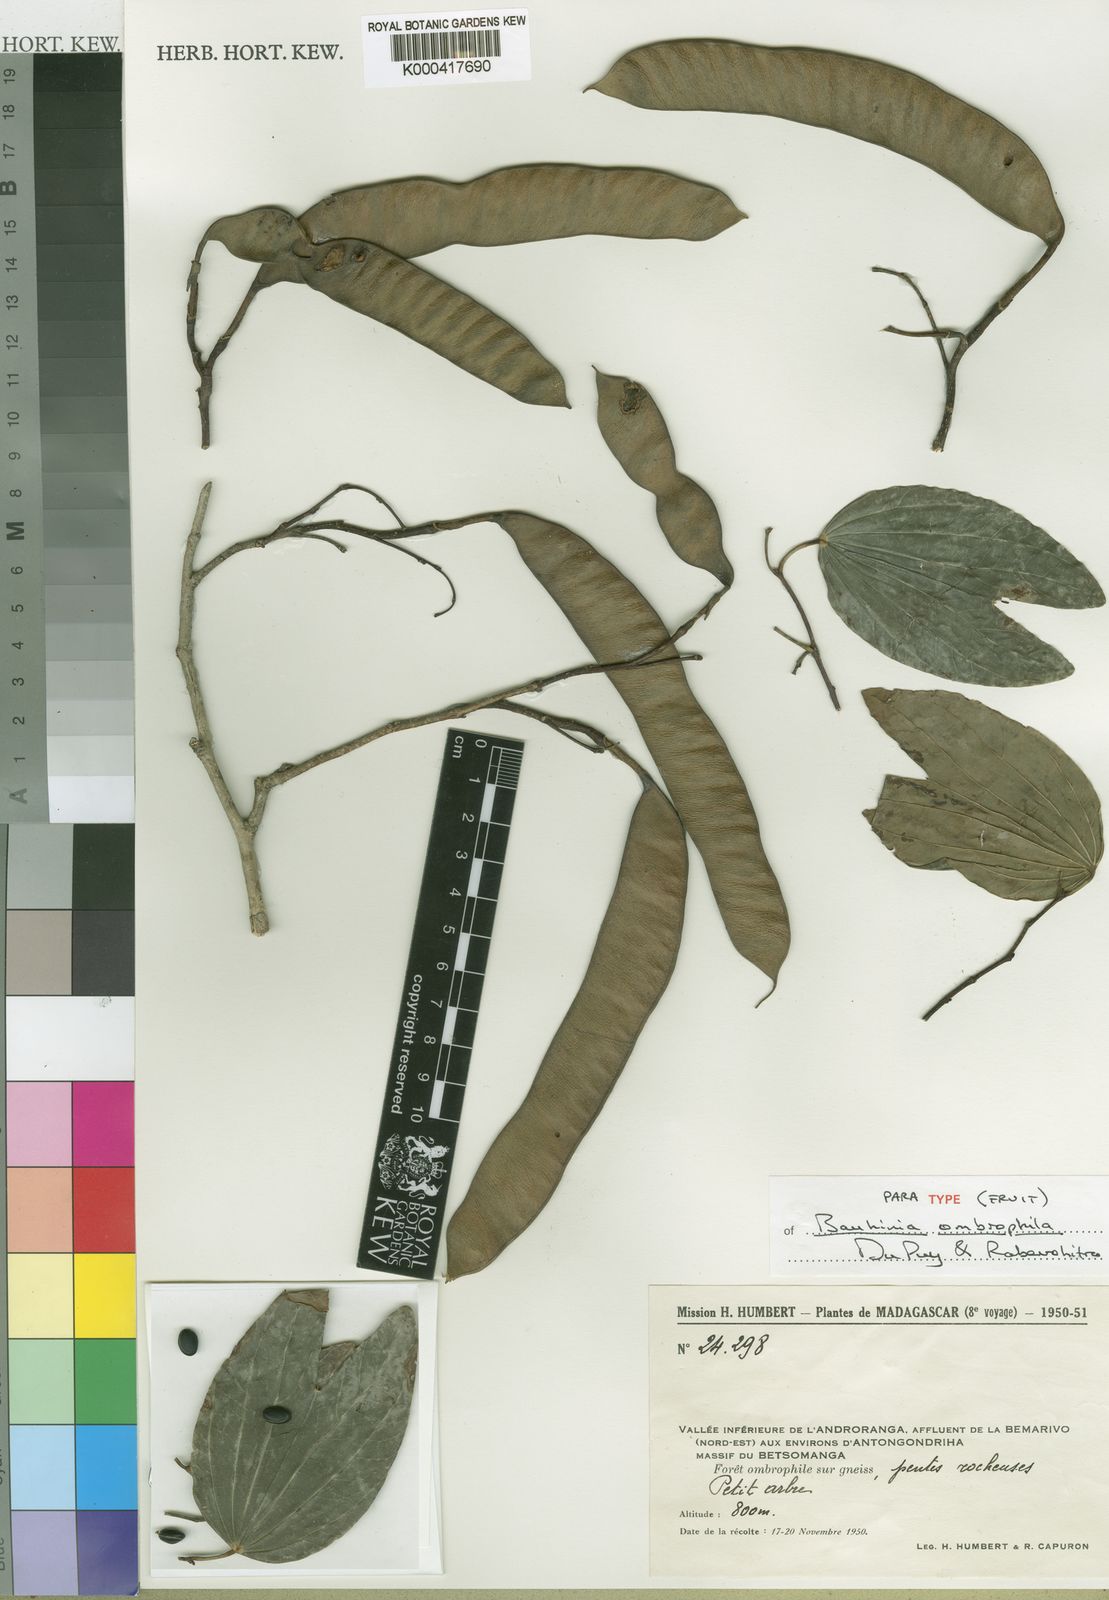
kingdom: Plantae
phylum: Tracheophyta
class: Magnoliopsida
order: Fabales
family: Fabaceae
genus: Bauhinia
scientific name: Bauhinia ombrophila
